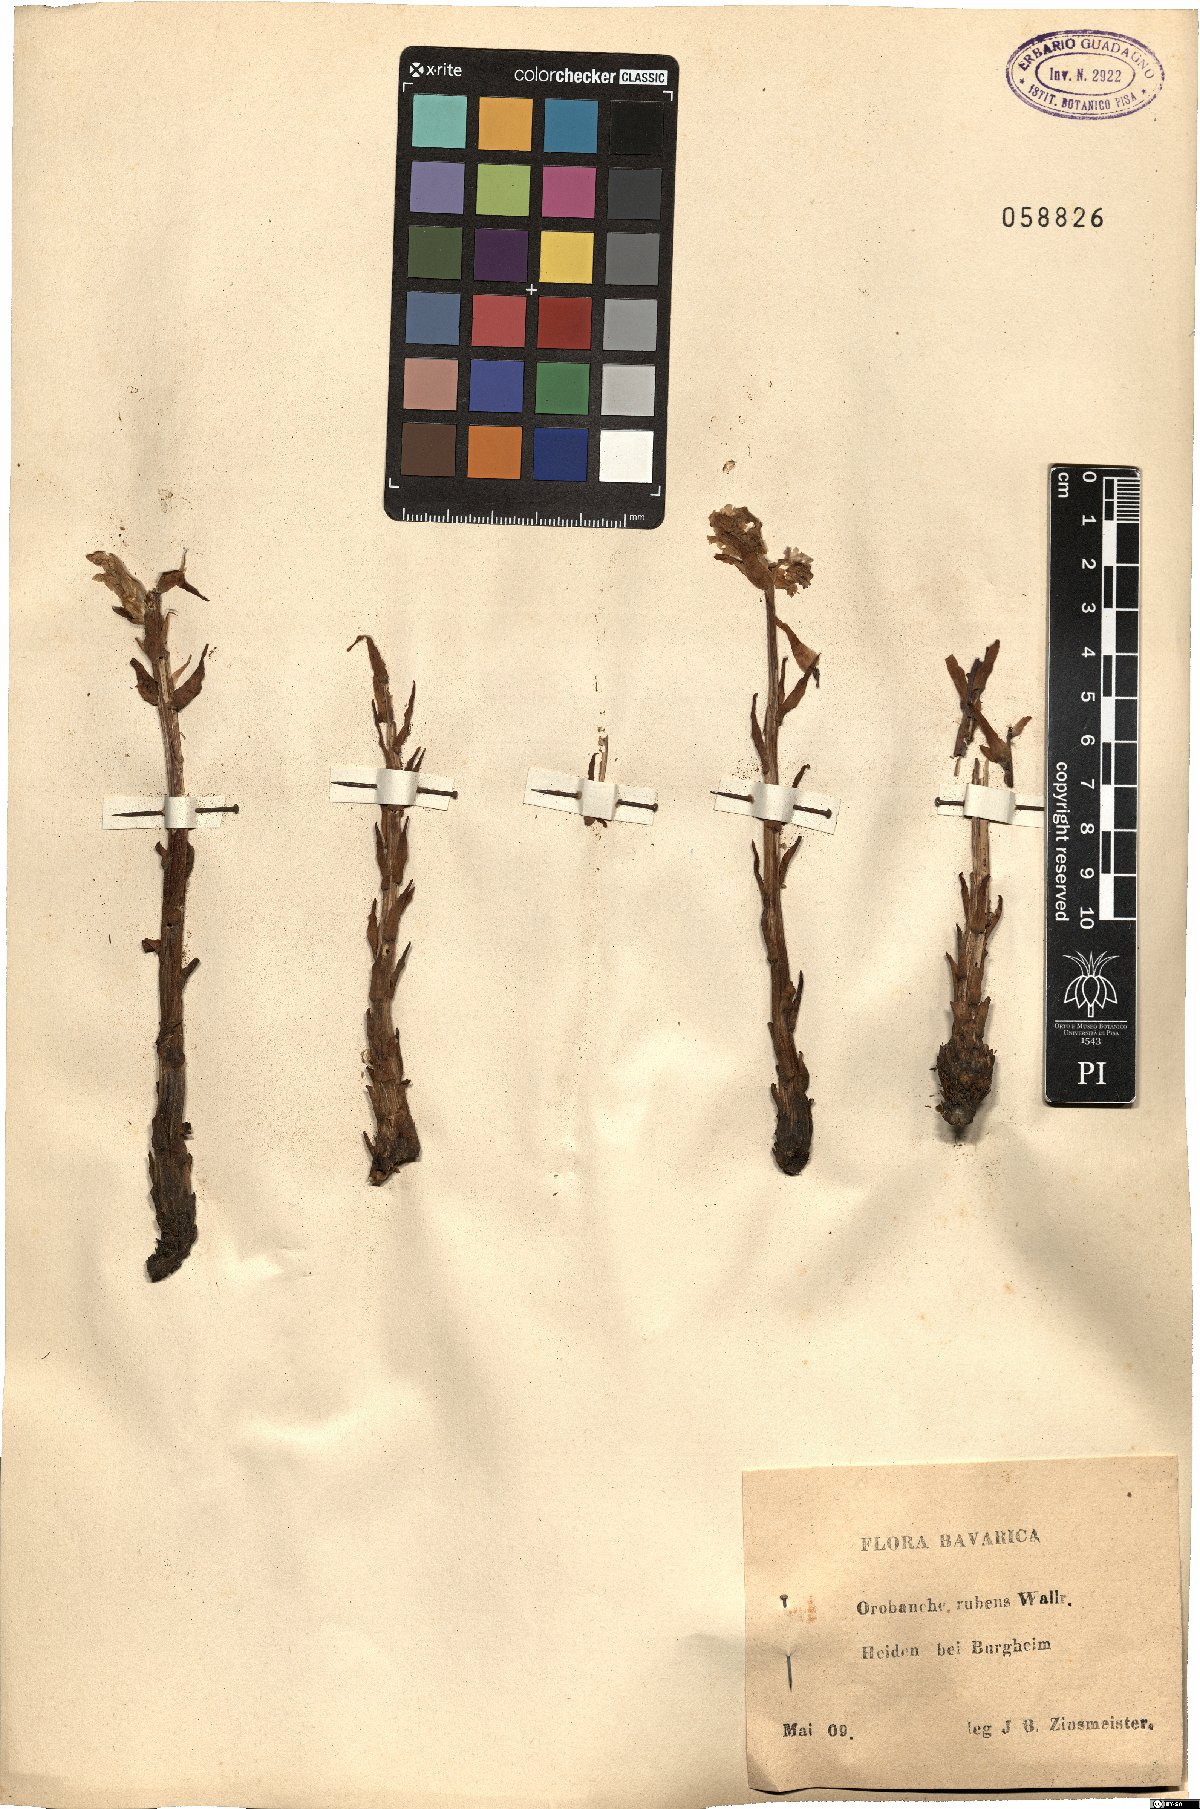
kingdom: Plantae
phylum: Tracheophyta
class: Magnoliopsida
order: Lamiales
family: Orobanchaceae
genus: Orobanche
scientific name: Orobanche lutea
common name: Yellow broomrape
